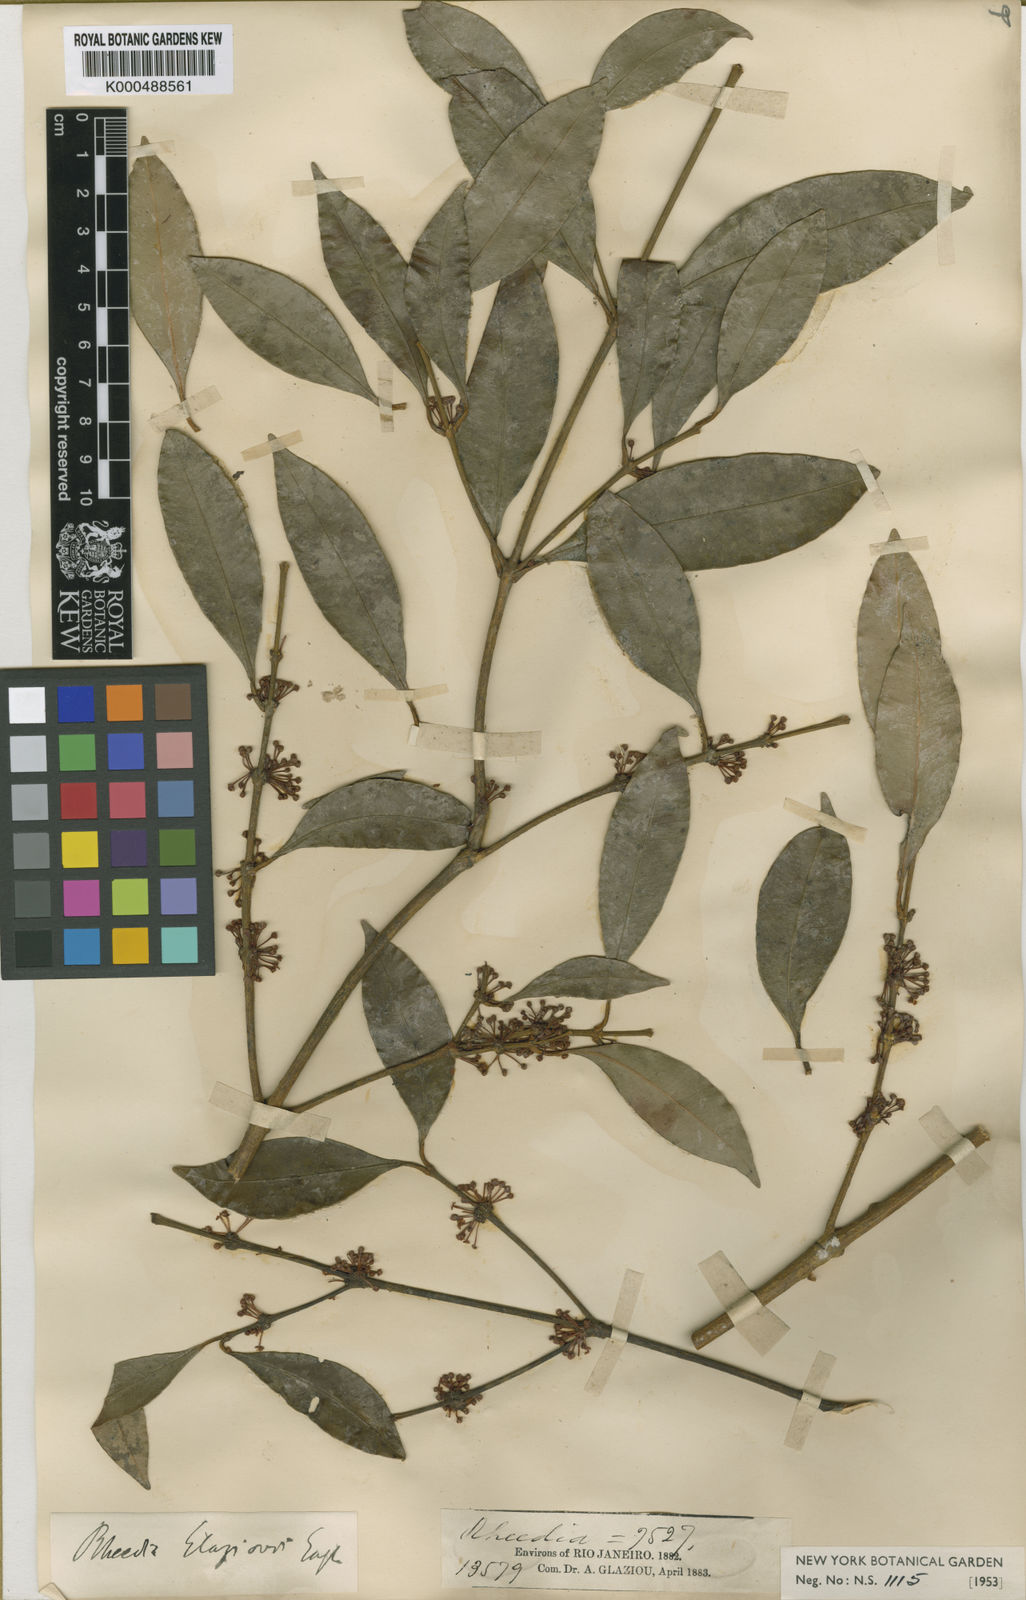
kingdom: Plantae
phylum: Tracheophyta
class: Magnoliopsida
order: Malpighiales
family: Clusiaceae
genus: Garcinia
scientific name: Garcinia gardneriana
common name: Achacha
